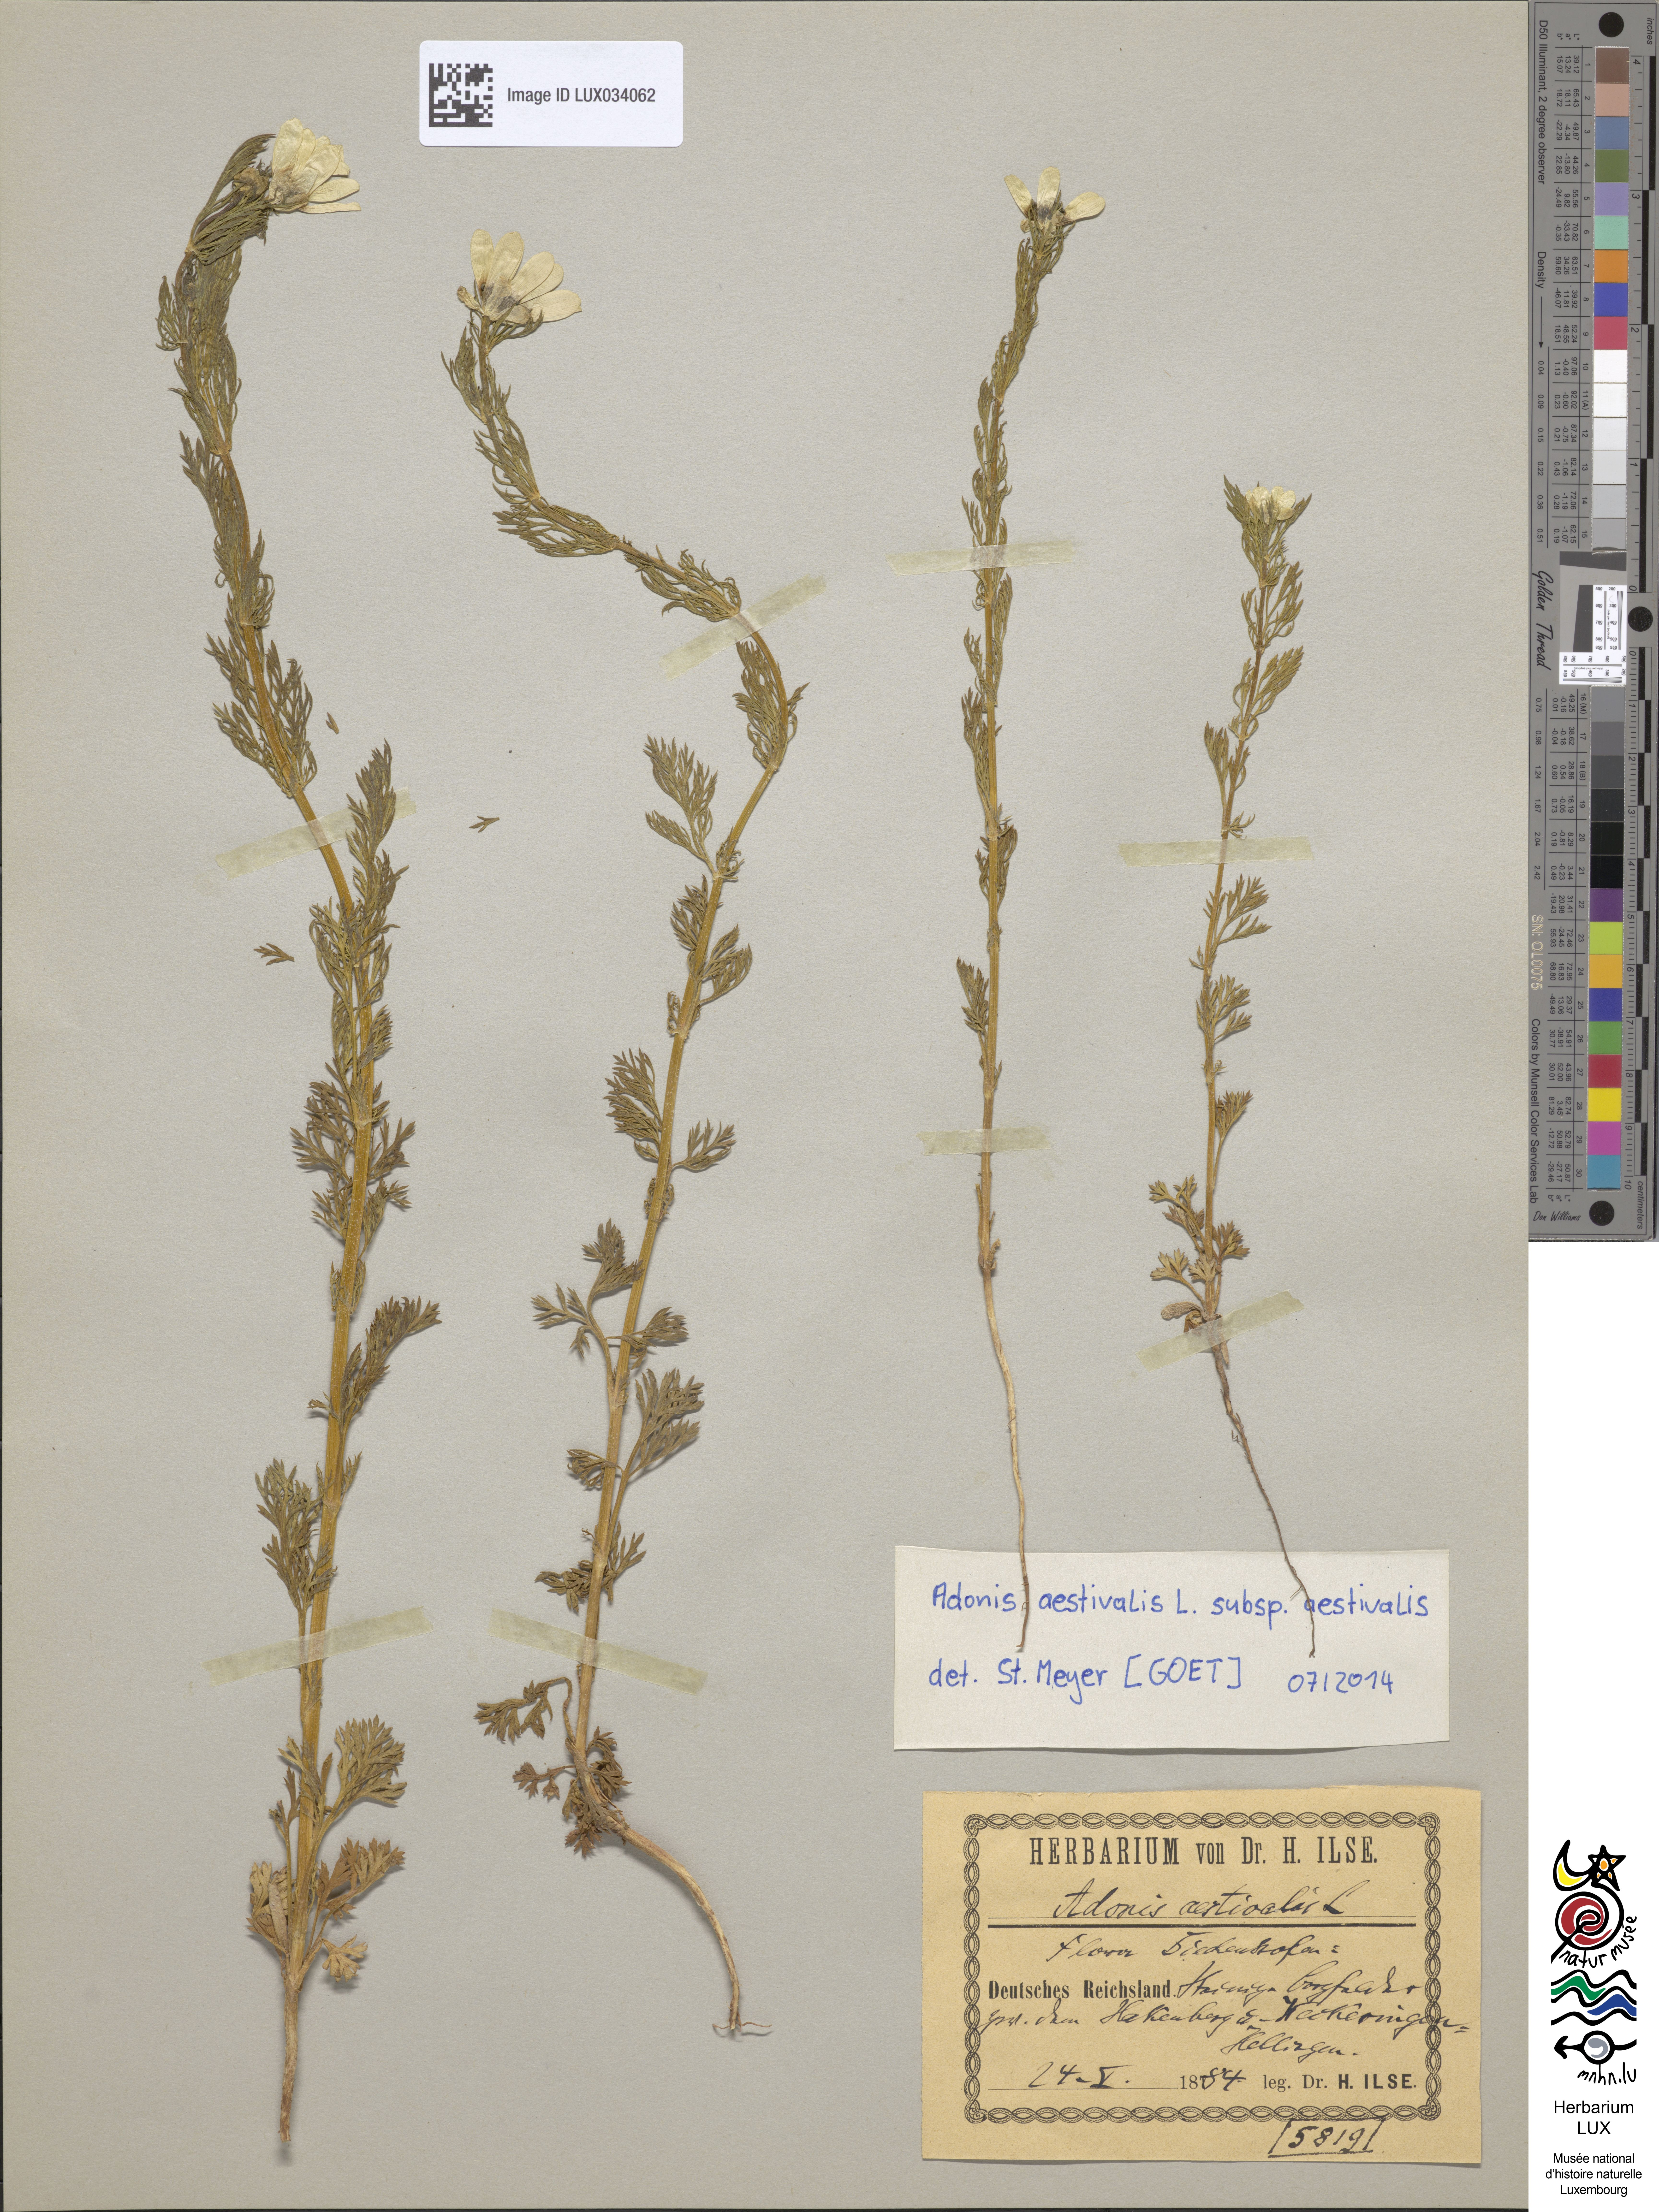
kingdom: Plantae
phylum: Tracheophyta
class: Magnoliopsida
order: Ranunculales
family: Ranunculaceae
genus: Adonis
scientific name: Adonis aestivalis
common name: Summer pheasant's-eye
